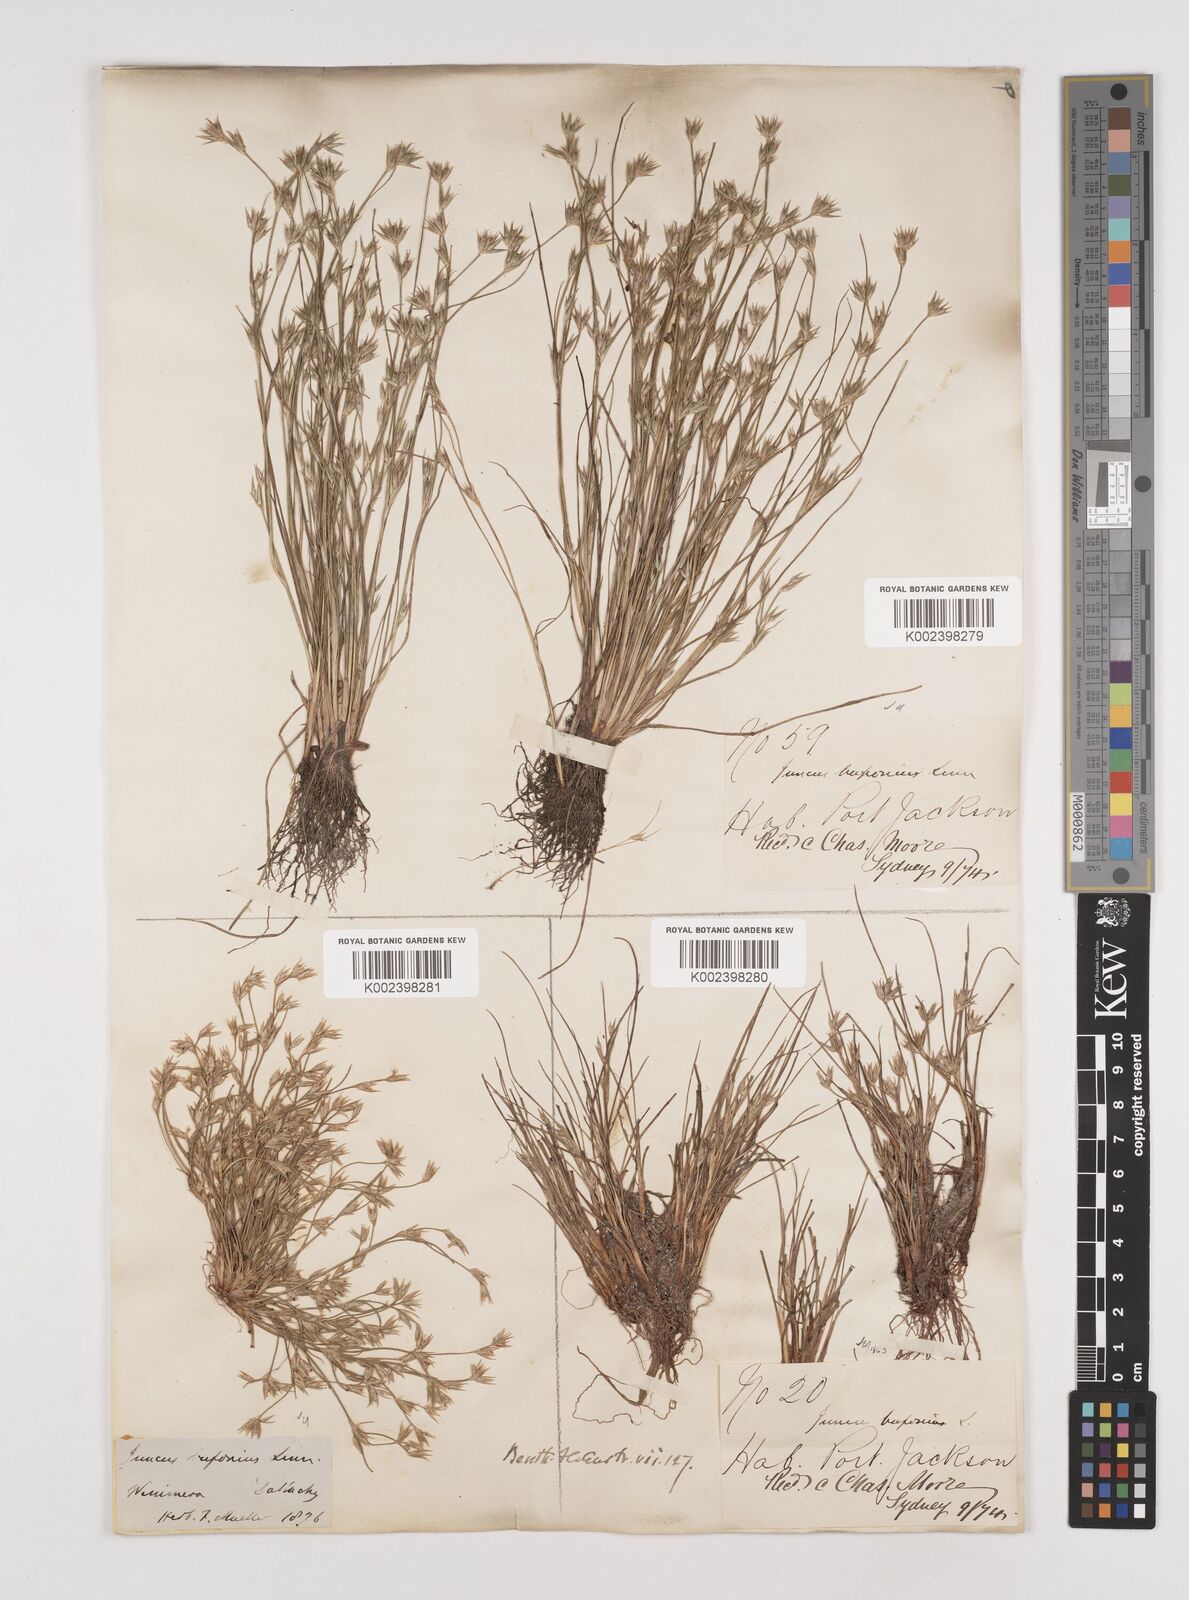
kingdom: Plantae
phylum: Tracheophyta
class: Liliopsida
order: Poales
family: Juncaceae
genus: Juncus
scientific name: Juncus ranarius
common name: Frog rush
